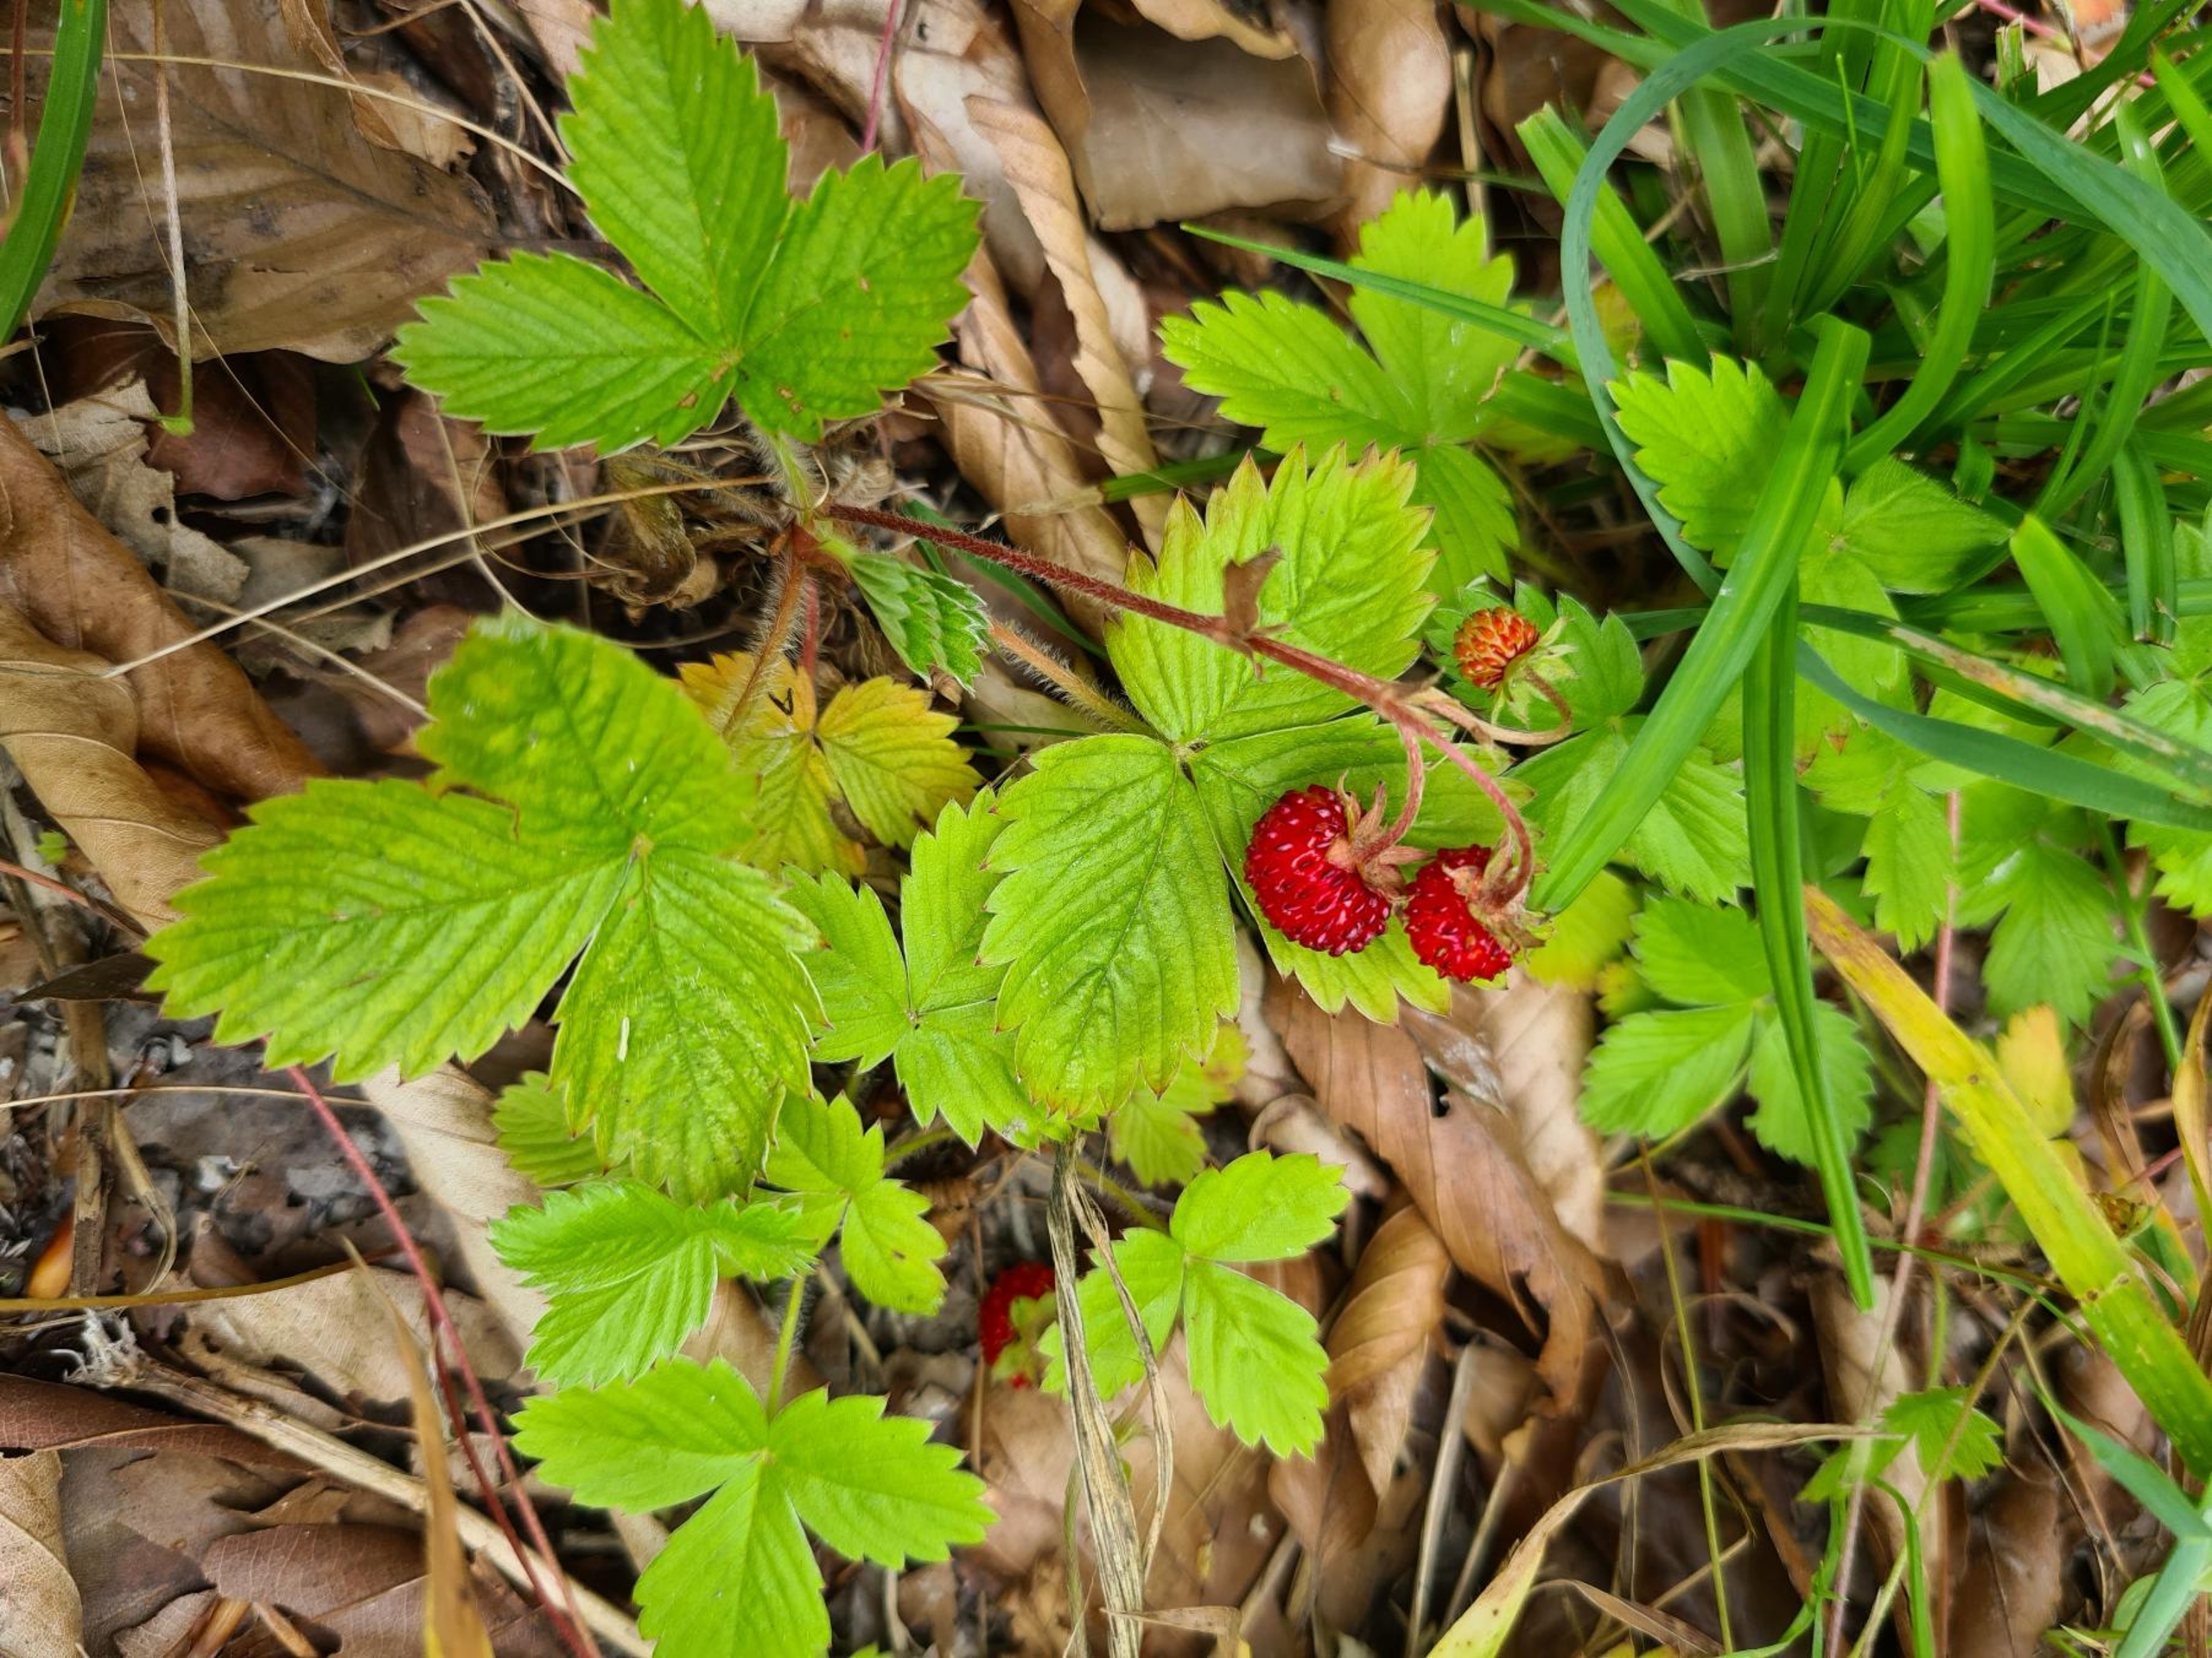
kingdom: Plantae
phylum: Tracheophyta
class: Magnoliopsida
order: Rosales
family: Rosaceae
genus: Fragaria
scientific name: Fragaria vesca
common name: Skov-jordbær
